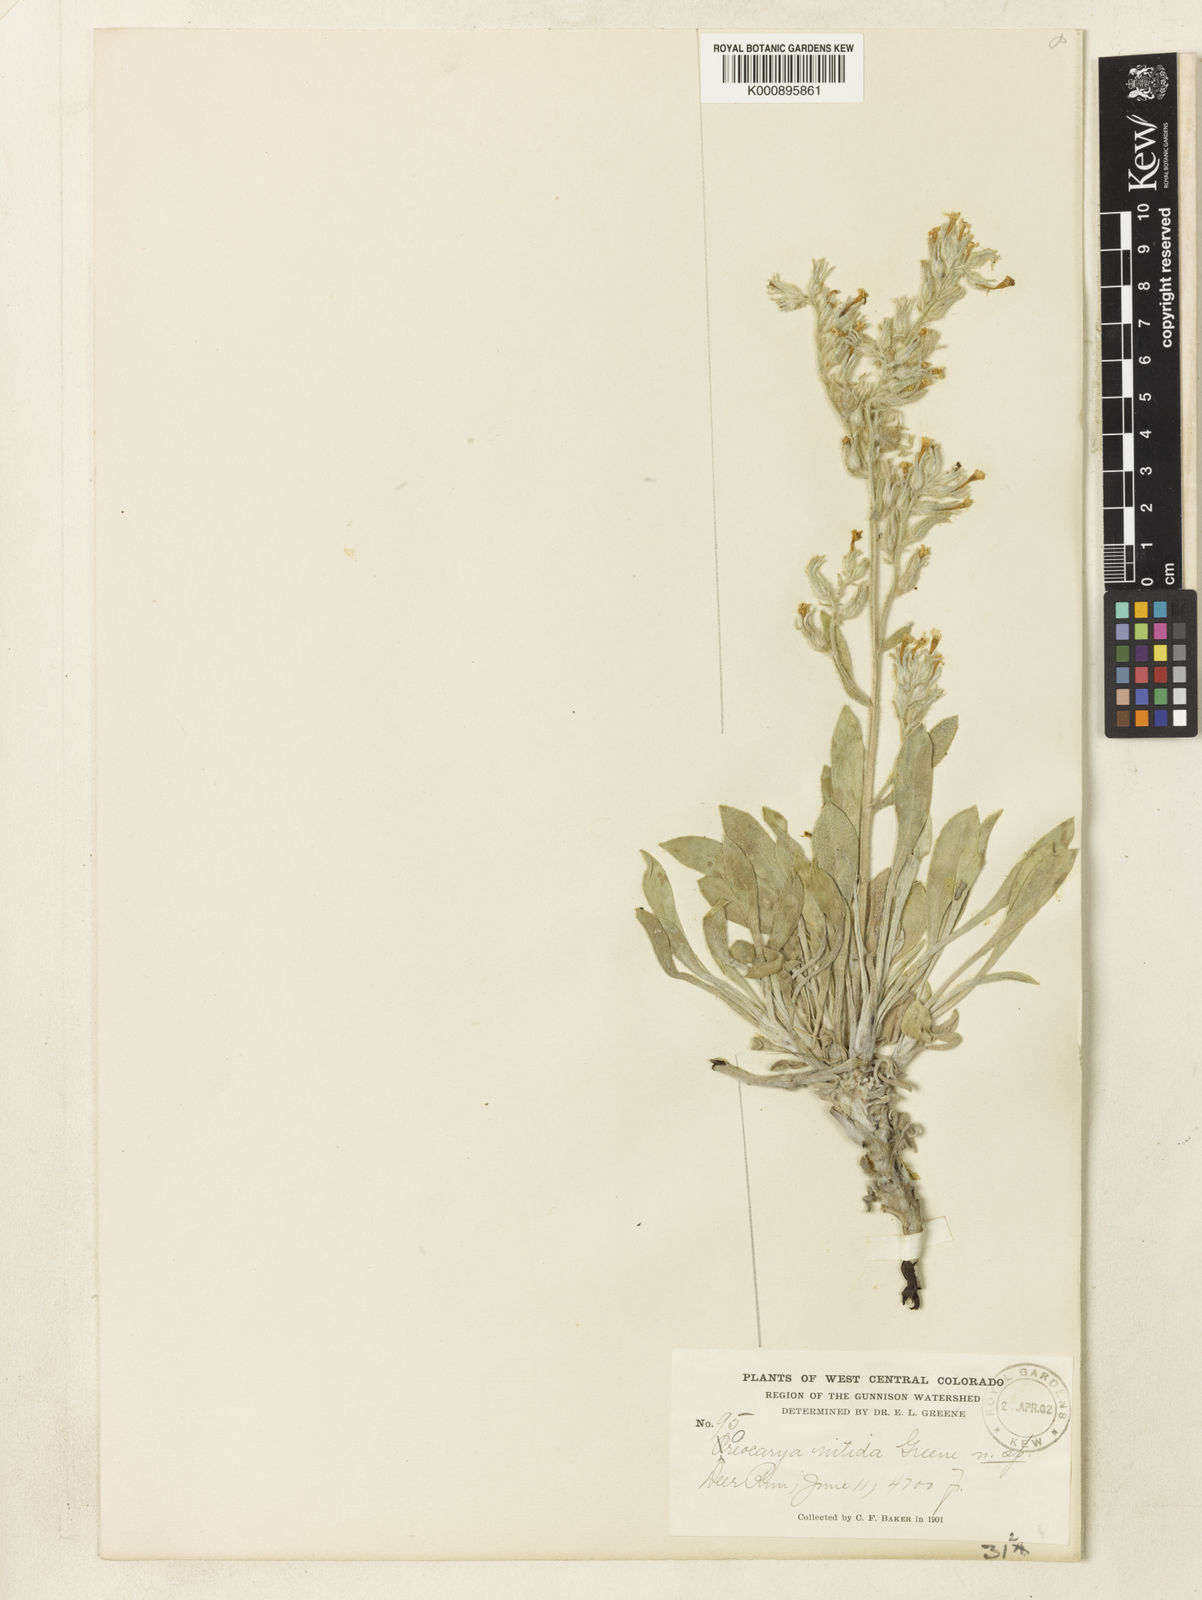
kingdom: Plantae
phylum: Tracheophyta
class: Magnoliopsida
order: Boraginales
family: Boraginaceae
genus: Oreocarya
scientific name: Oreocarya fulvocanescens
